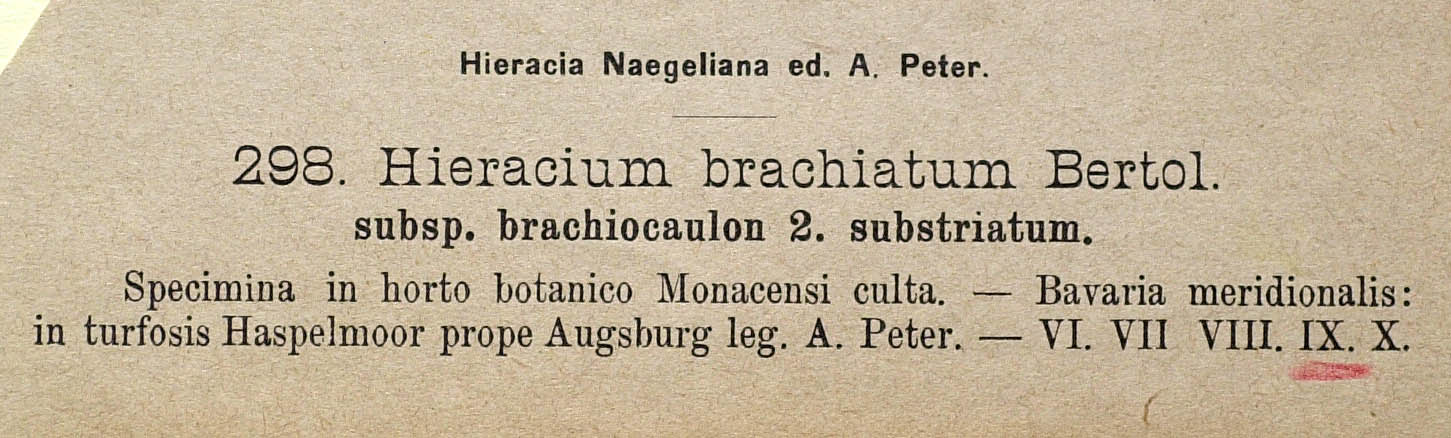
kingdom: Plantae
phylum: Tracheophyta
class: Magnoliopsida
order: Asterales
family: Asteraceae
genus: Pilosella
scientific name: Pilosella acutifolia
